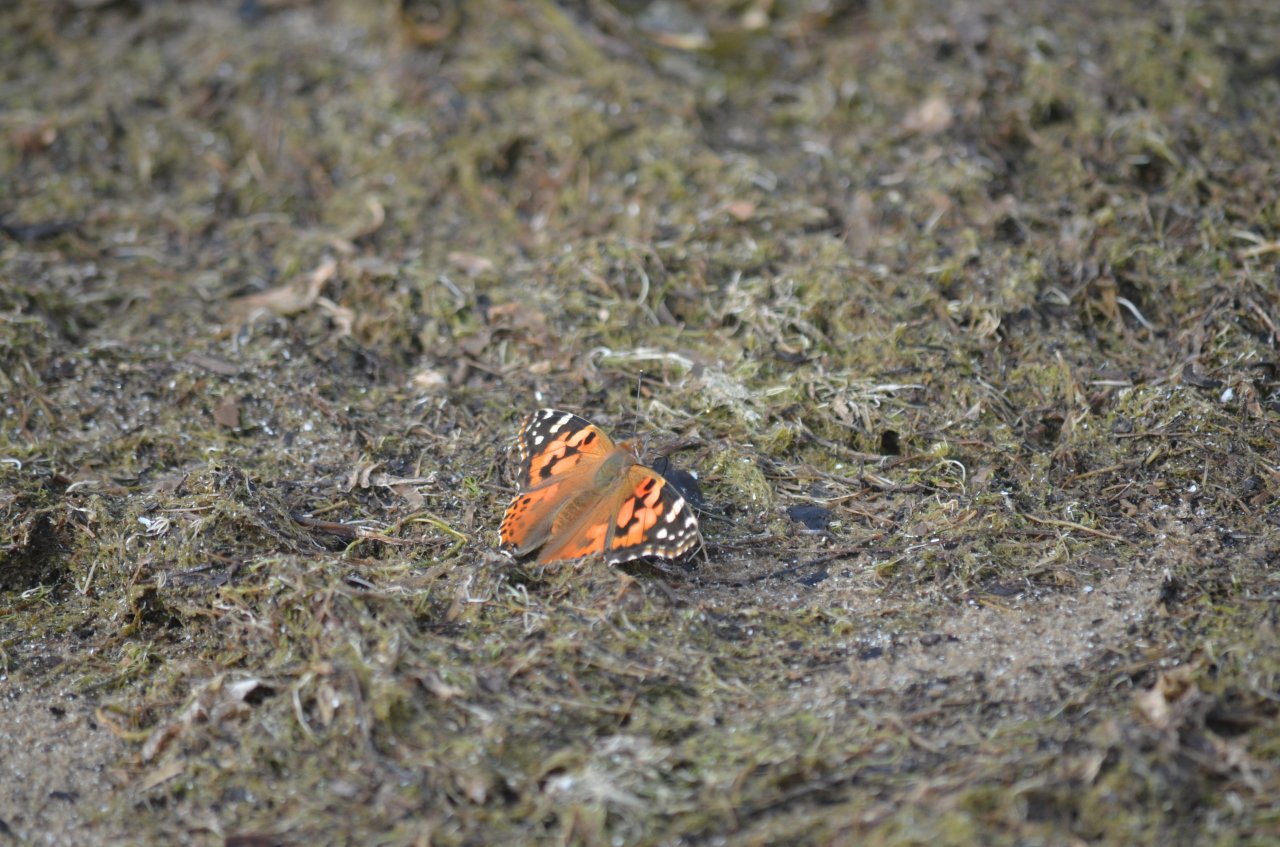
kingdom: Animalia
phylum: Arthropoda
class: Insecta
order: Lepidoptera
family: Nymphalidae
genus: Vanessa
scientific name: Vanessa cardui
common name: Painted Lady
